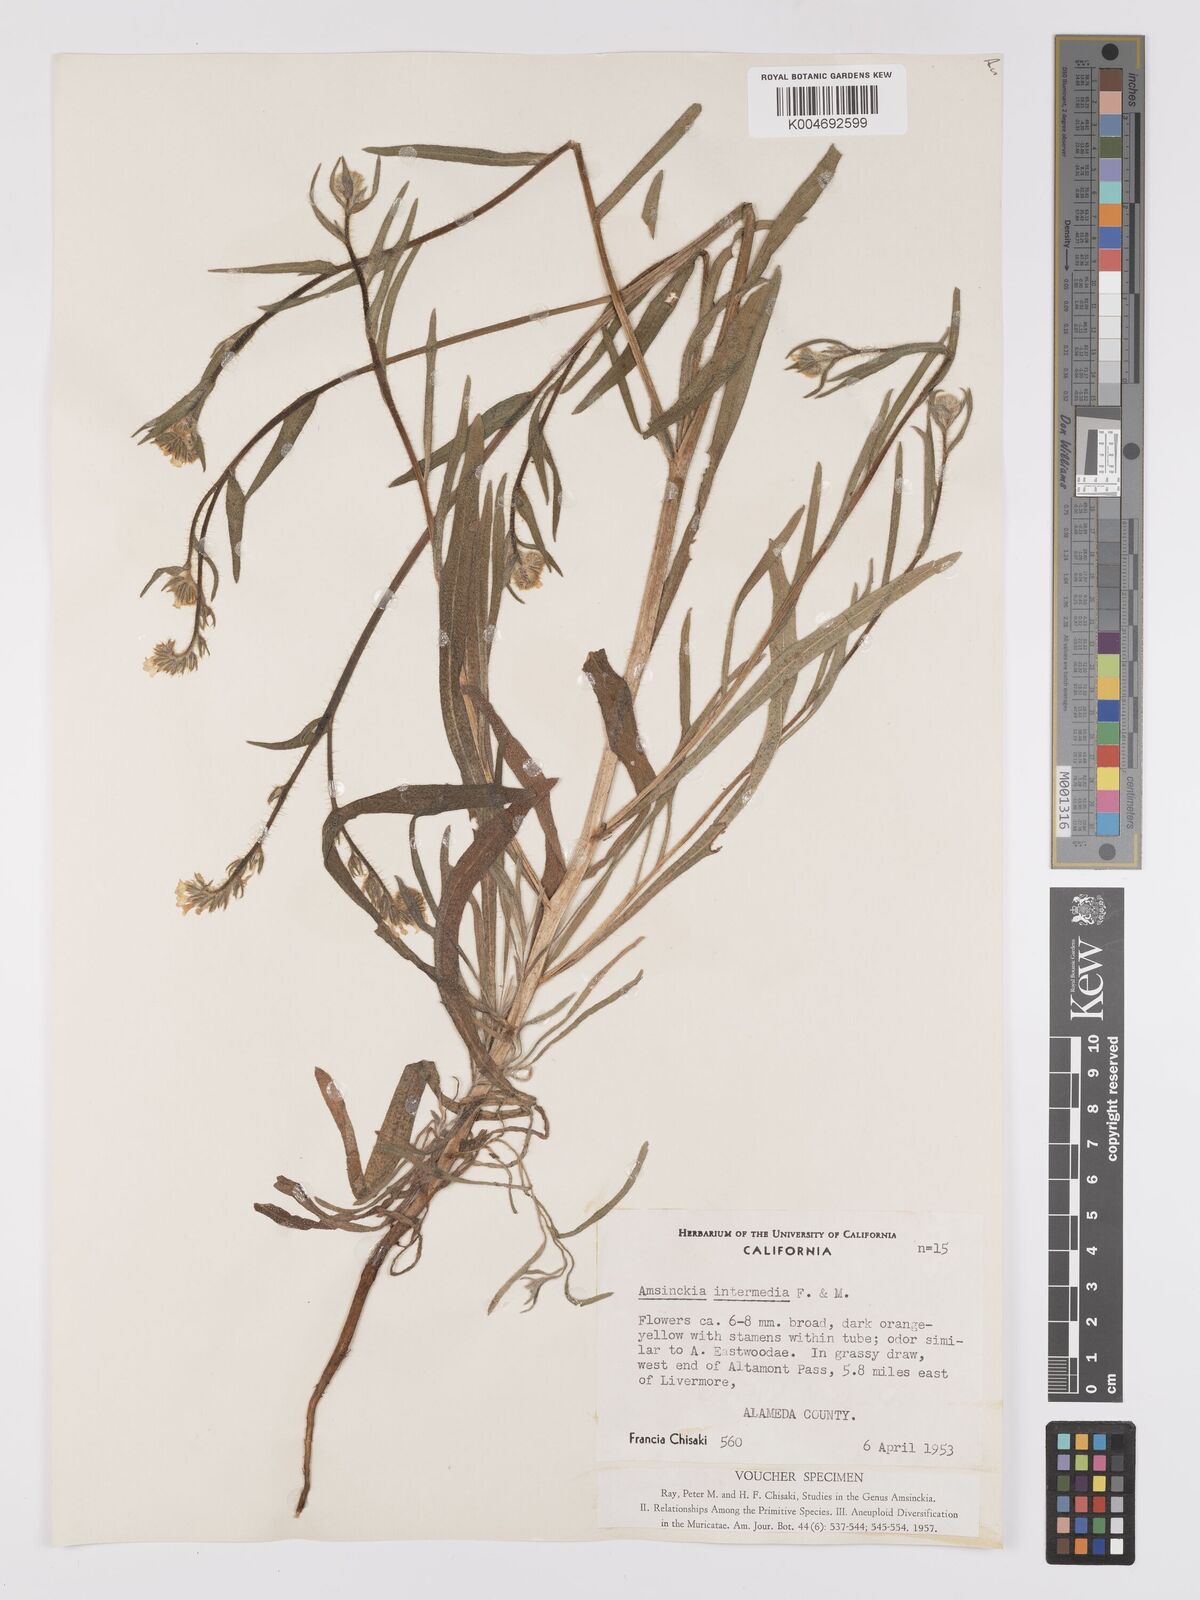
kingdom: Plantae
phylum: Tracheophyta
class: Magnoliopsida
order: Boraginales
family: Boraginaceae
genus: Amsinckia
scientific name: Amsinckia menziesii
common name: Menzies' fiddleneck
